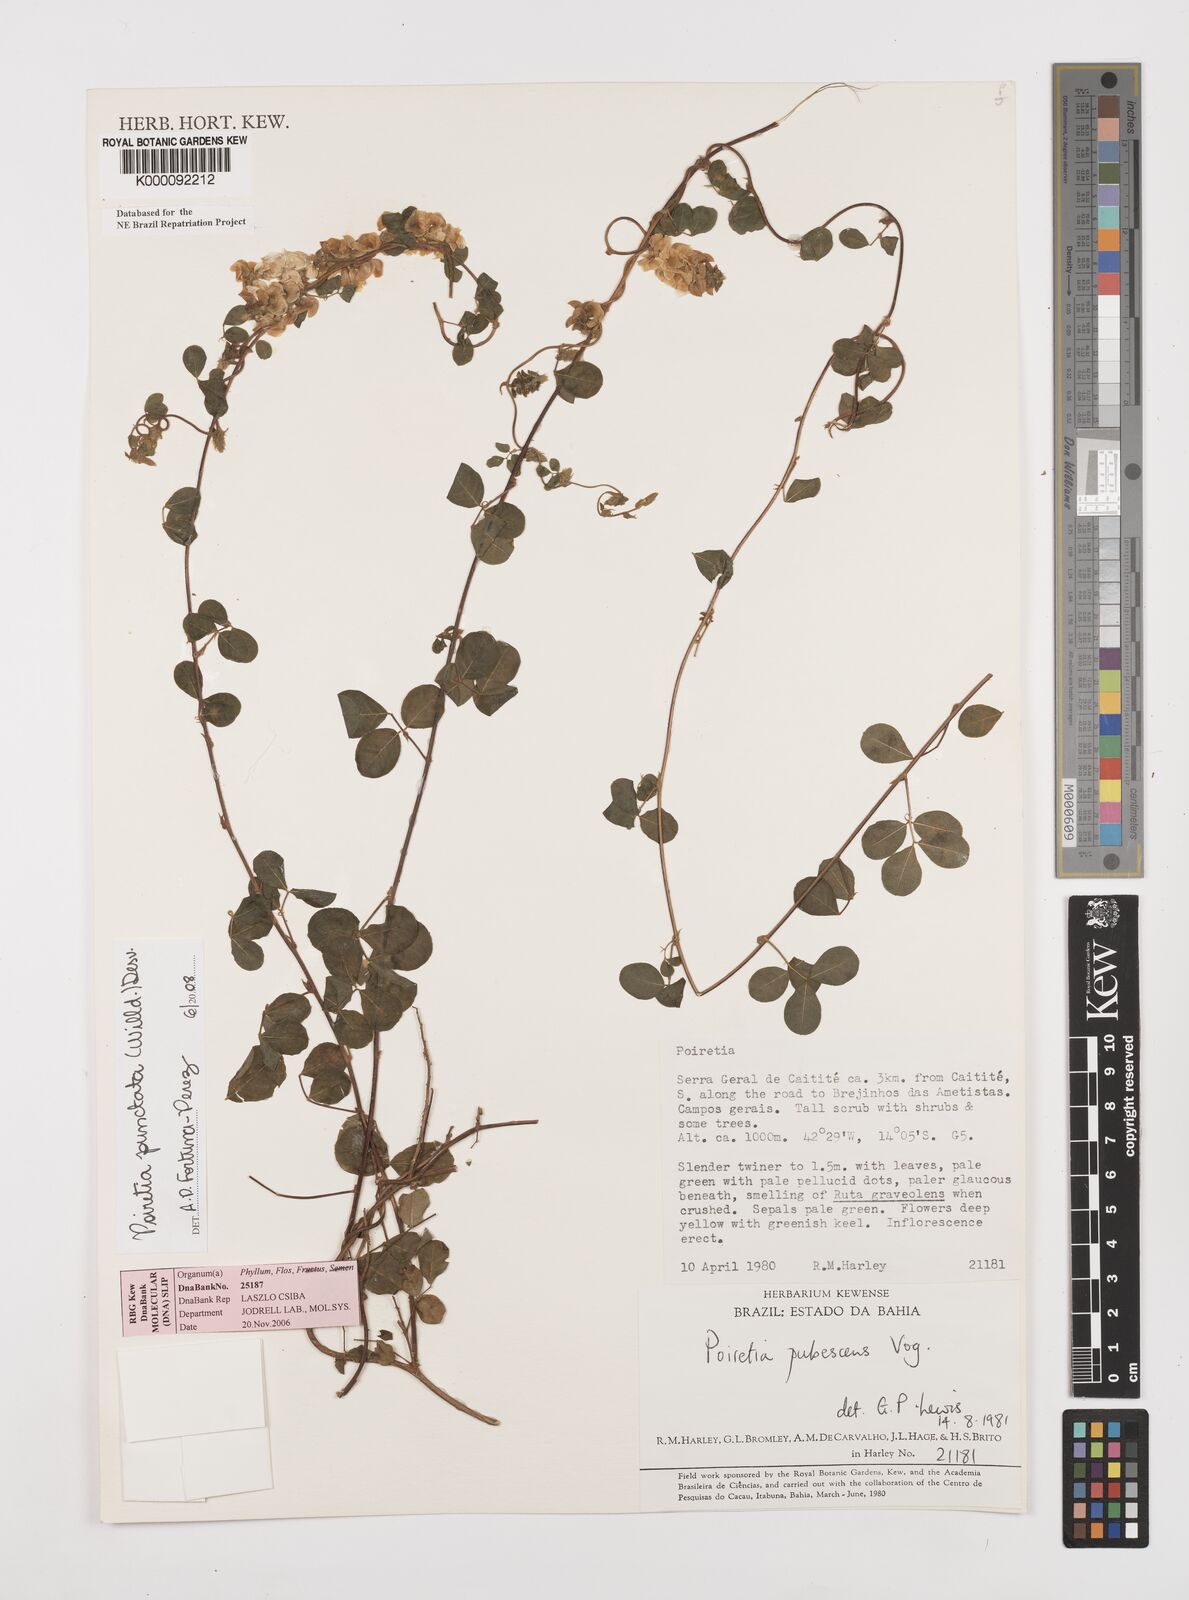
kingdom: Plantae
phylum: Tracheophyta
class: Magnoliopsida
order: Fabales
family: Fabaceae
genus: Poiretia
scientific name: Poiretia punctata
